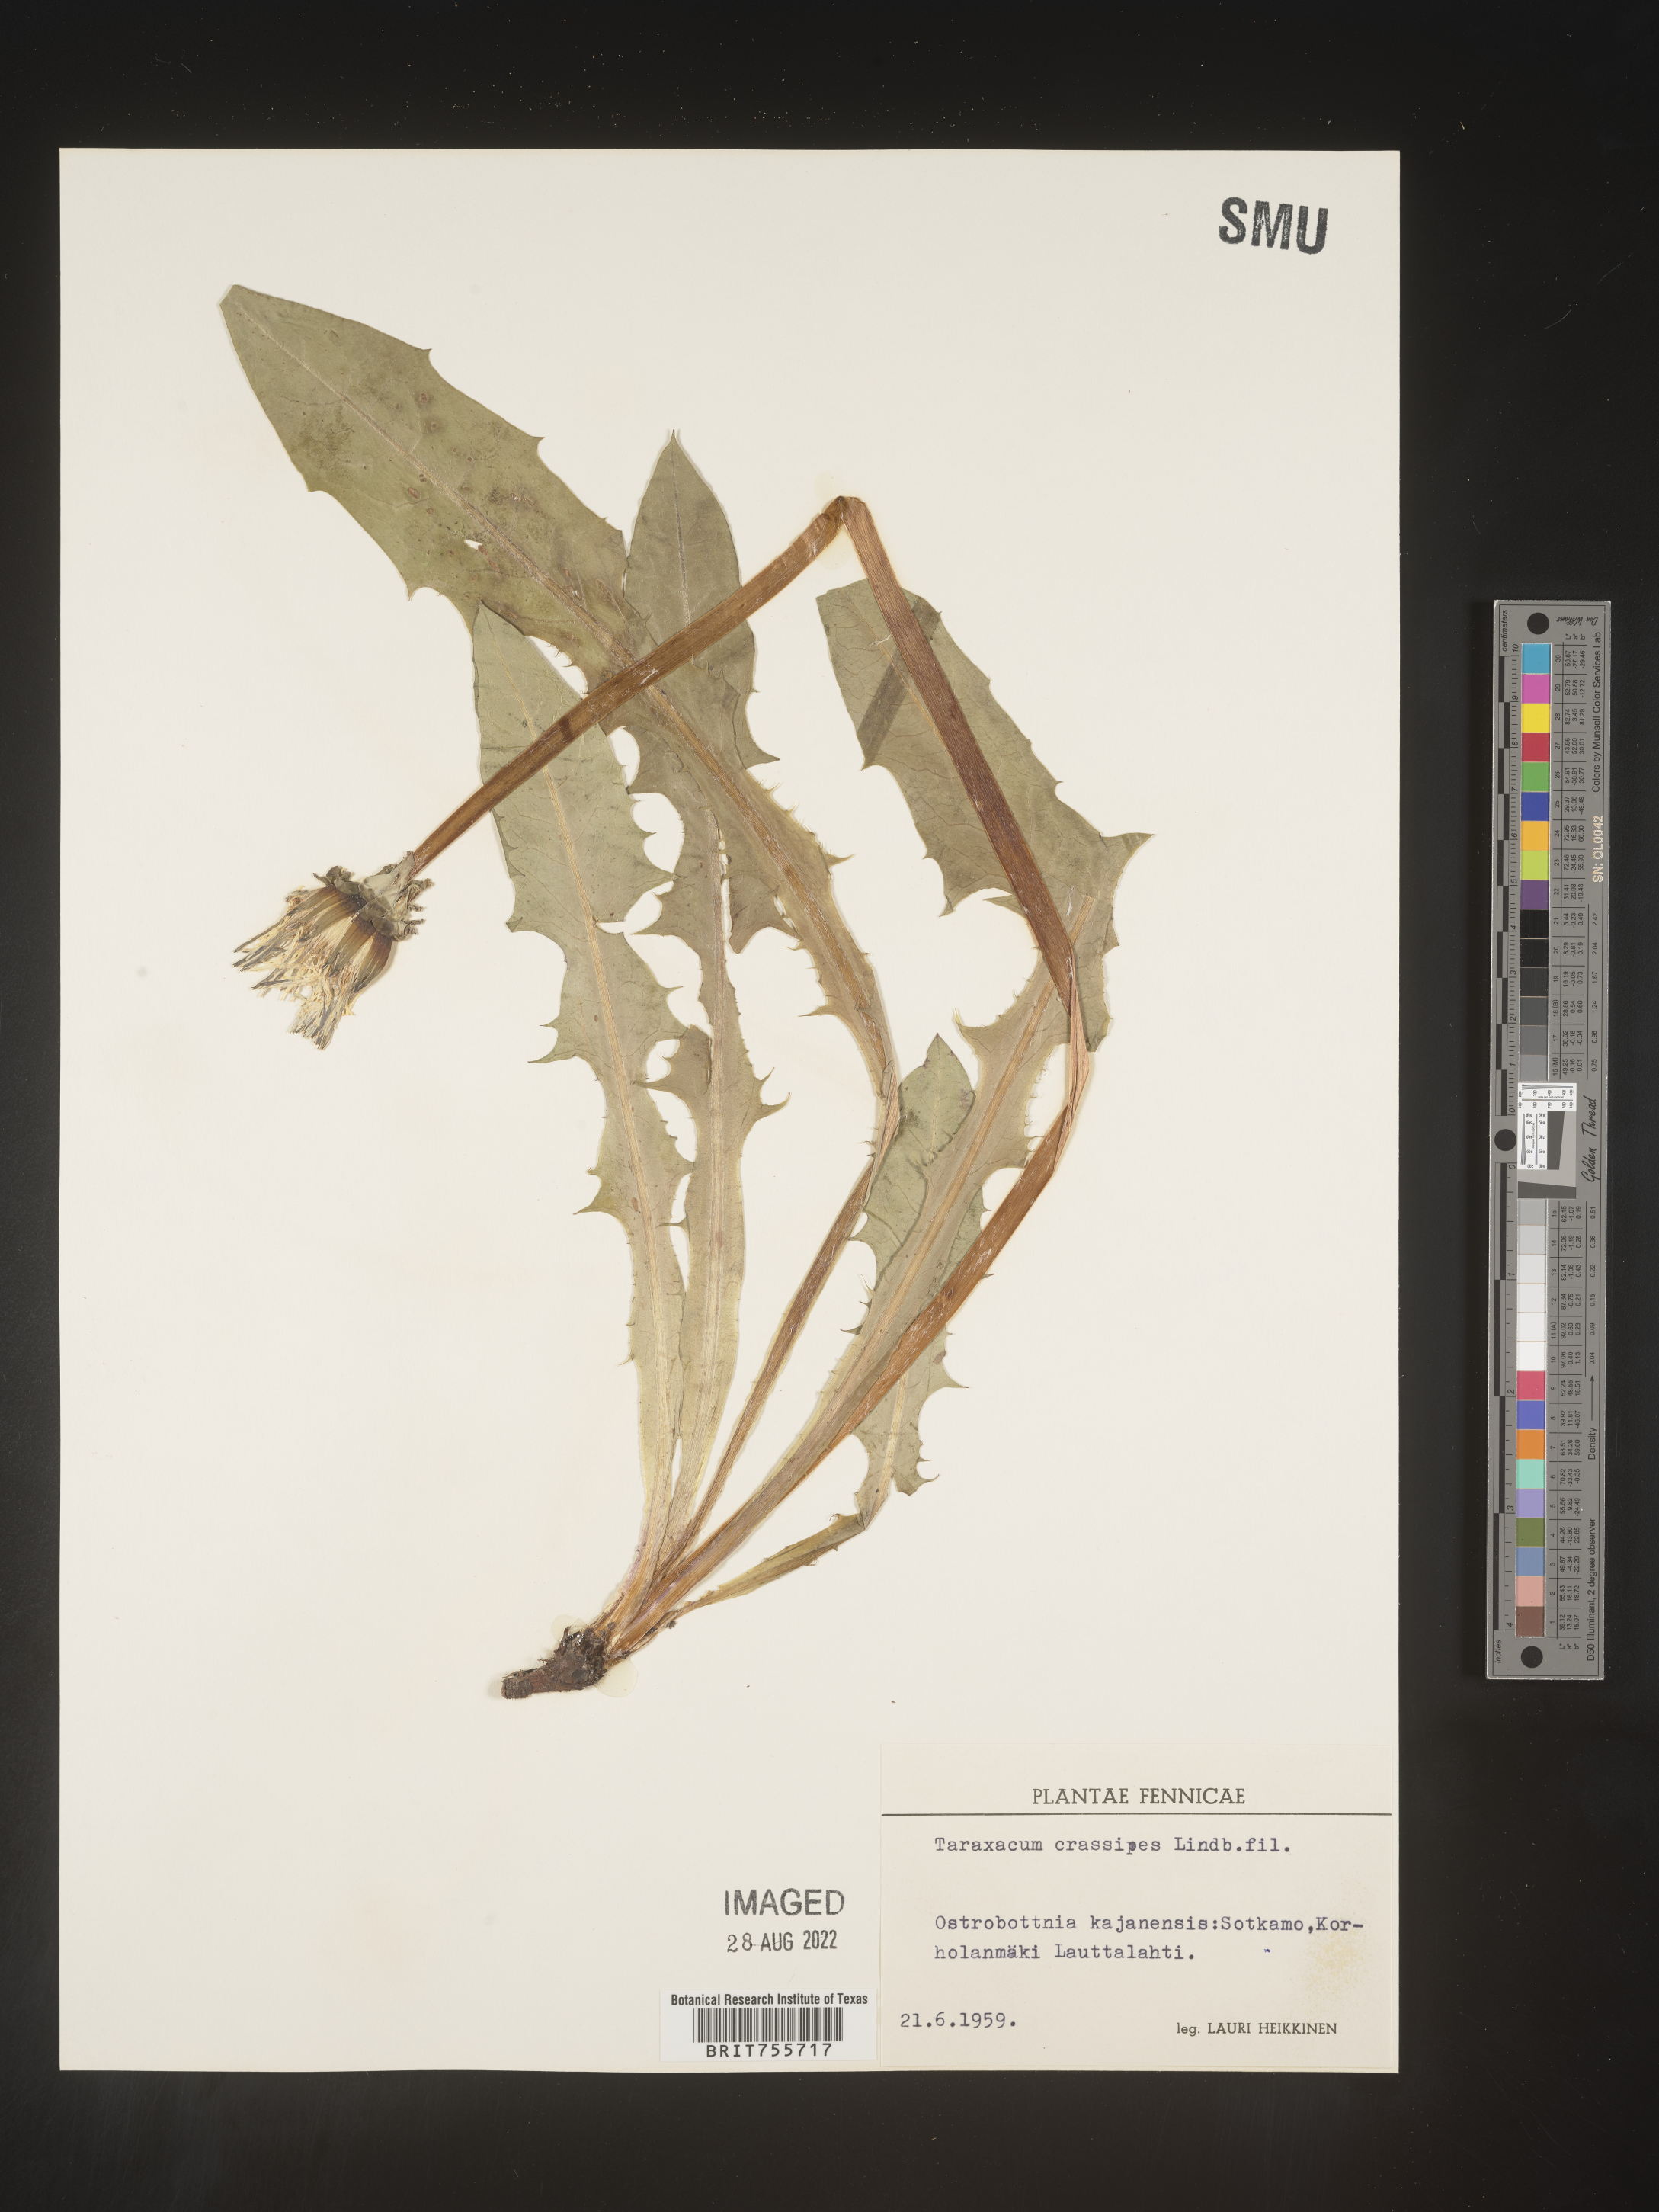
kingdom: Plantae
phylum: Tracheophyta
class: Magnoliopsida
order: Asterales
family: Asteraceae
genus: Taraxacum
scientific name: Taraxacum
